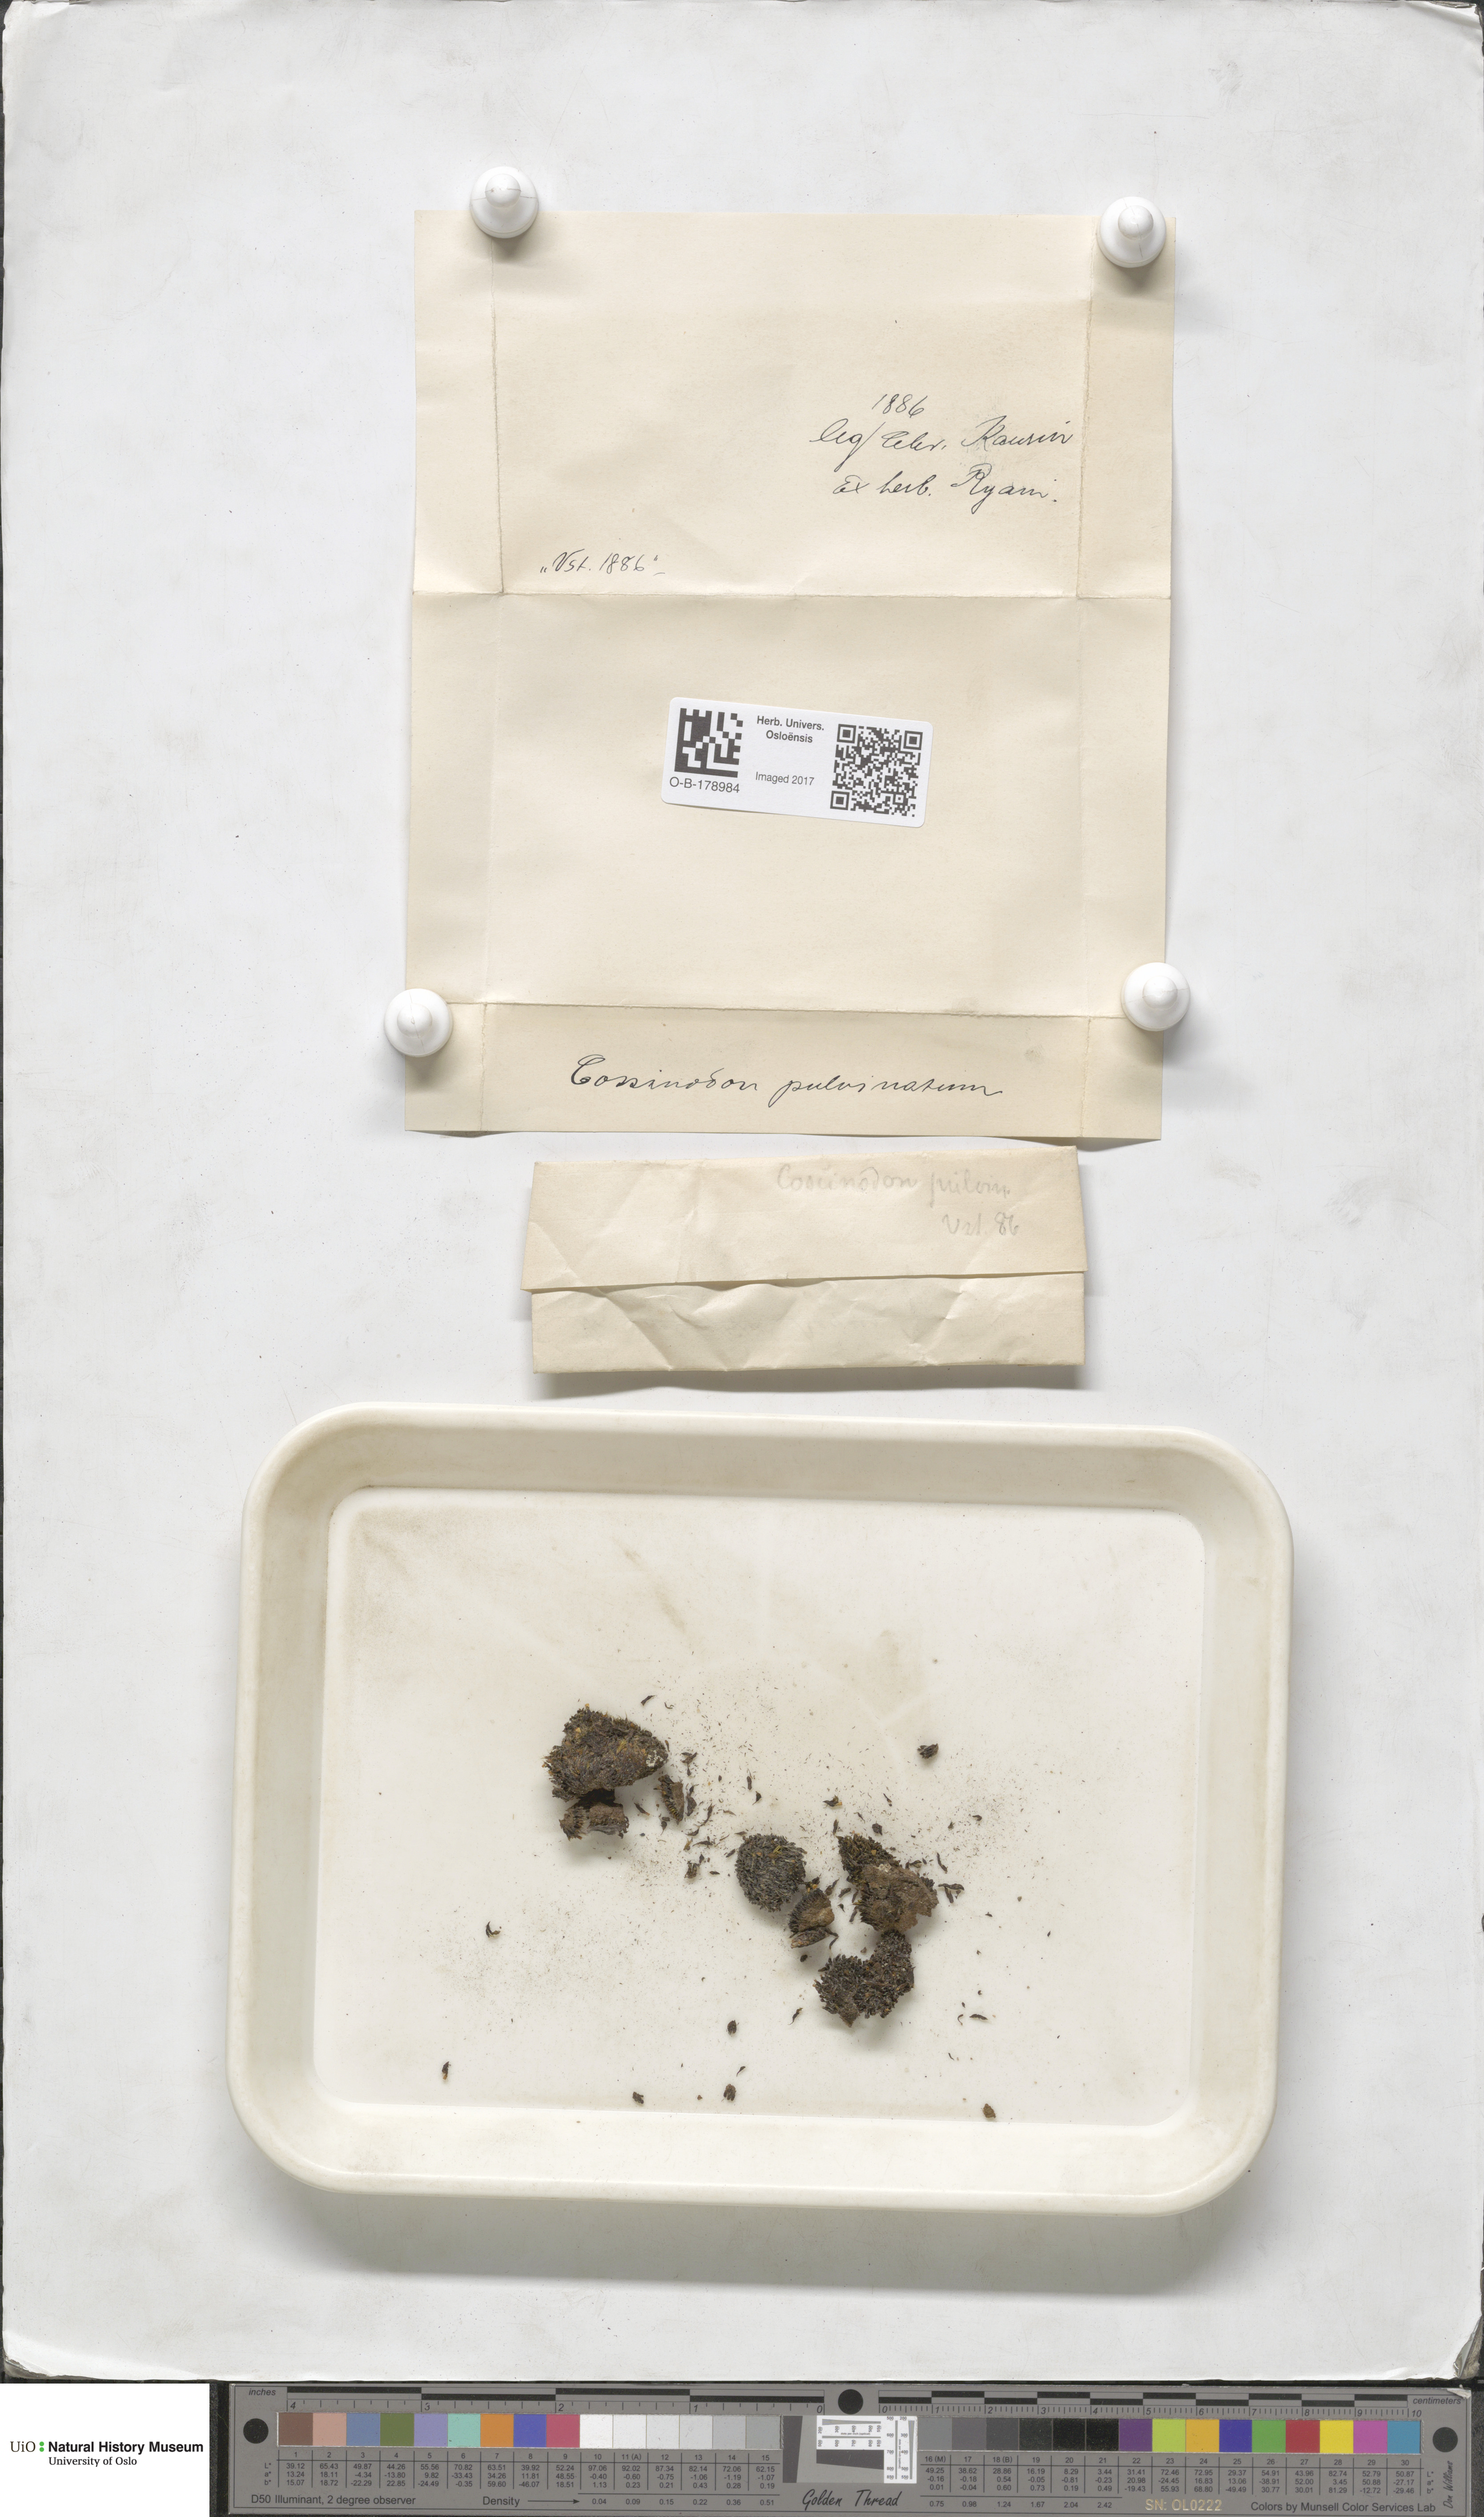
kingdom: Plantae
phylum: Bryophyta
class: Bryopsida
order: Bartramiales
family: Bartramiaceae
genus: Conostomum
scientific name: Conostomum tetragonum
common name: Helmet moss
